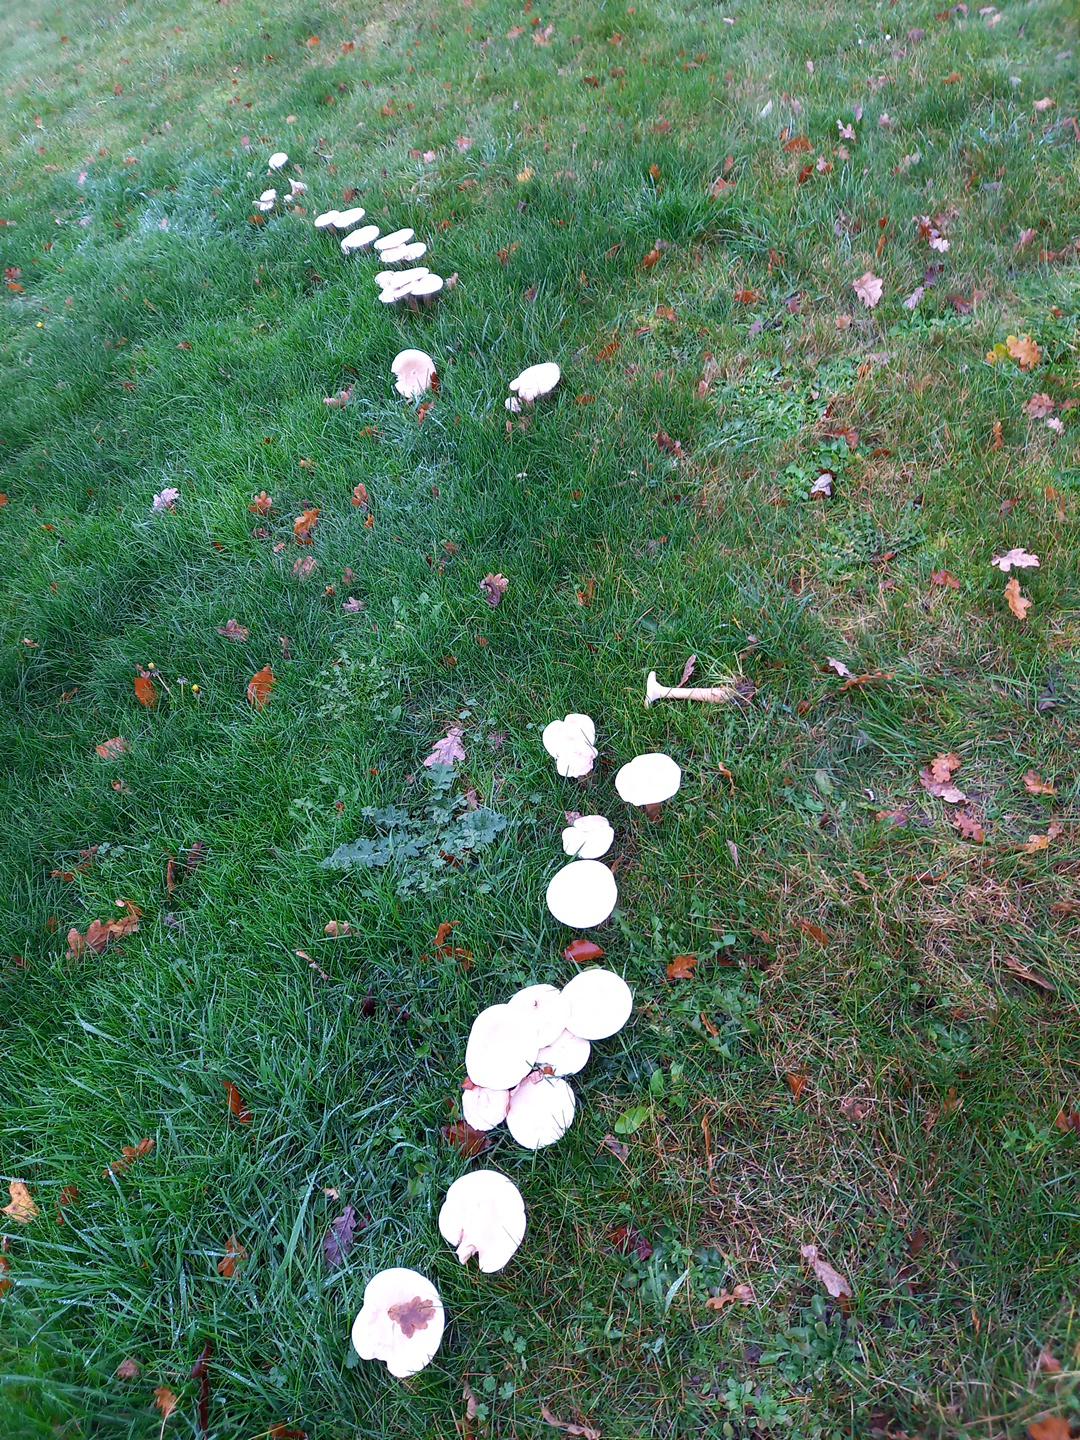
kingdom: Fungi
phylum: Basidiomycota
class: Agaricomycetes
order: Agaricales
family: Tricholomataceae
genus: Infundibulicybe
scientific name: Infundibulicybe geotropa
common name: stor tragthat
